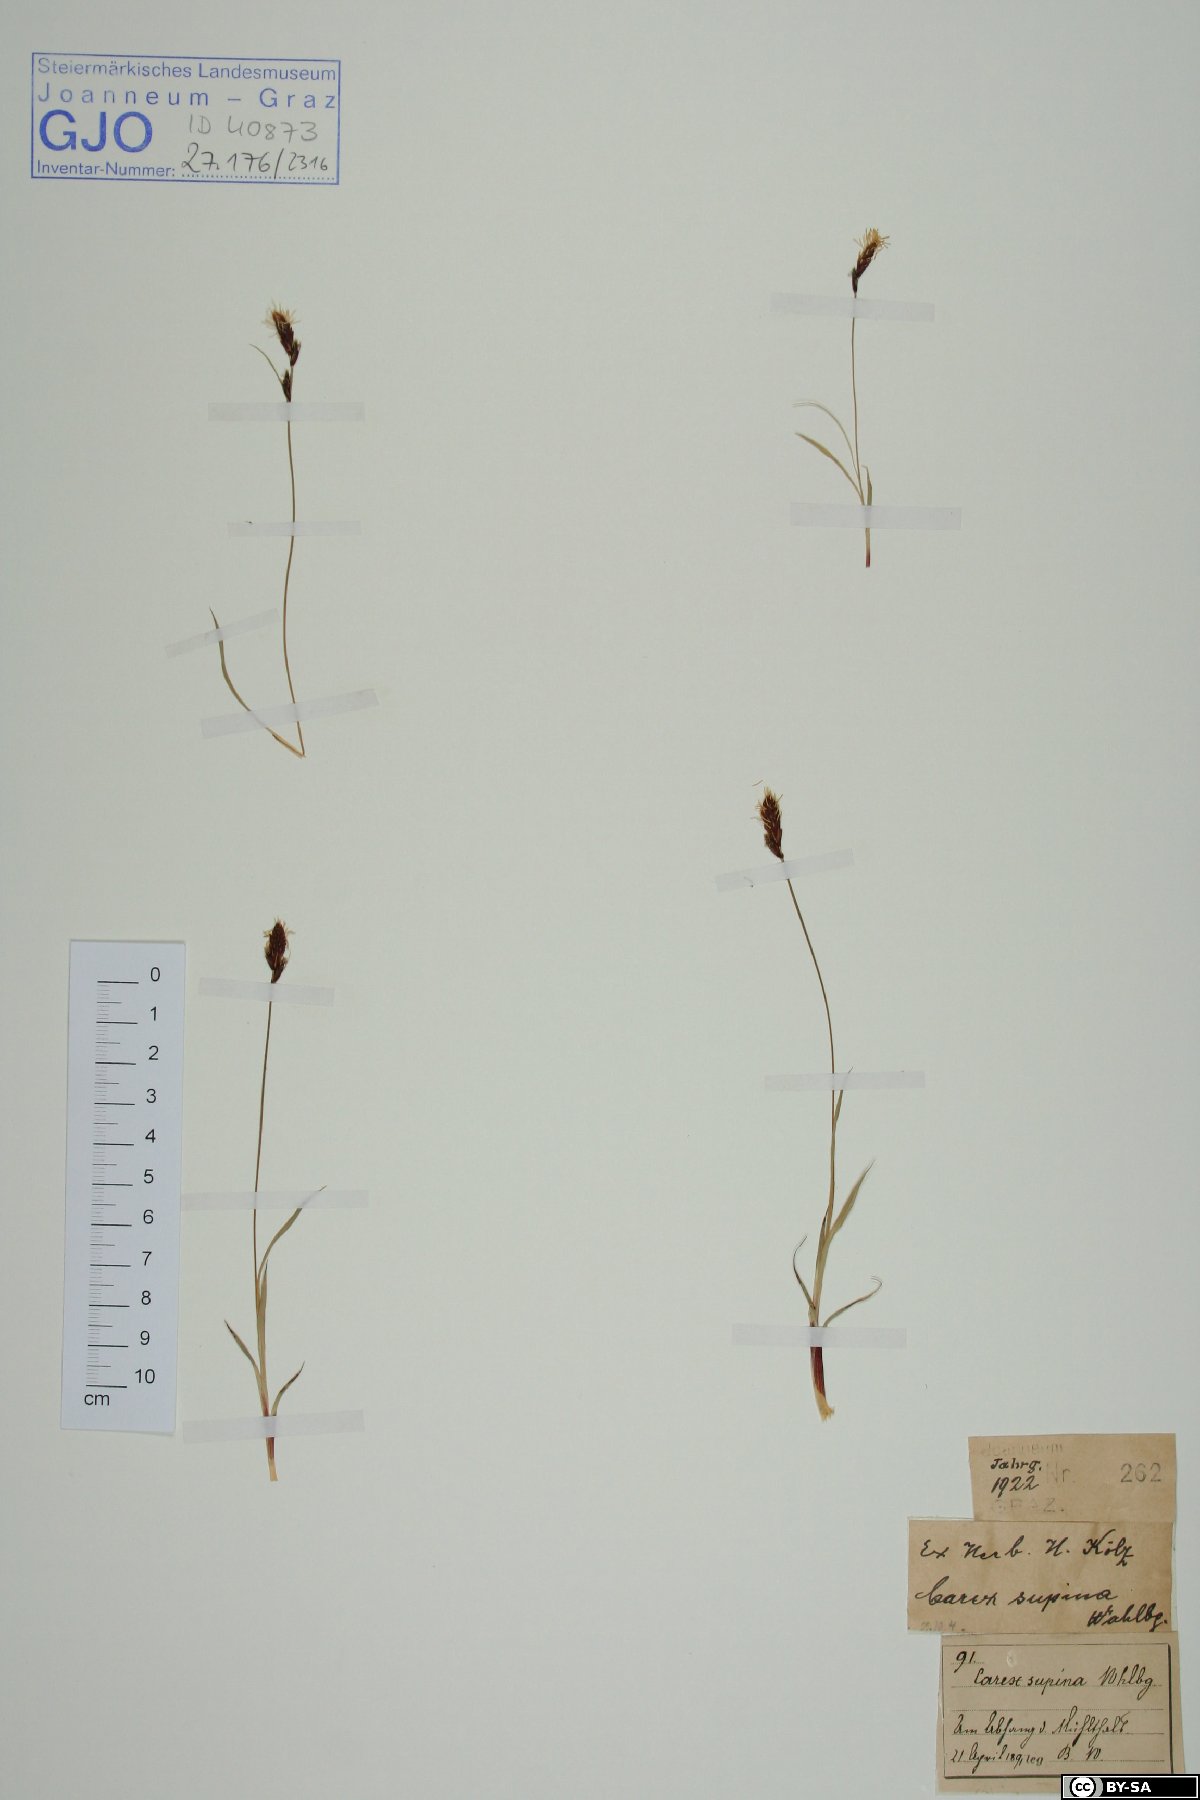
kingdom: Plantae
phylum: Tracheophyta
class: Liliopsida
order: Poales
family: Cyperaceae
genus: Carex
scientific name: Carex supina
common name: Lying-back sedge
